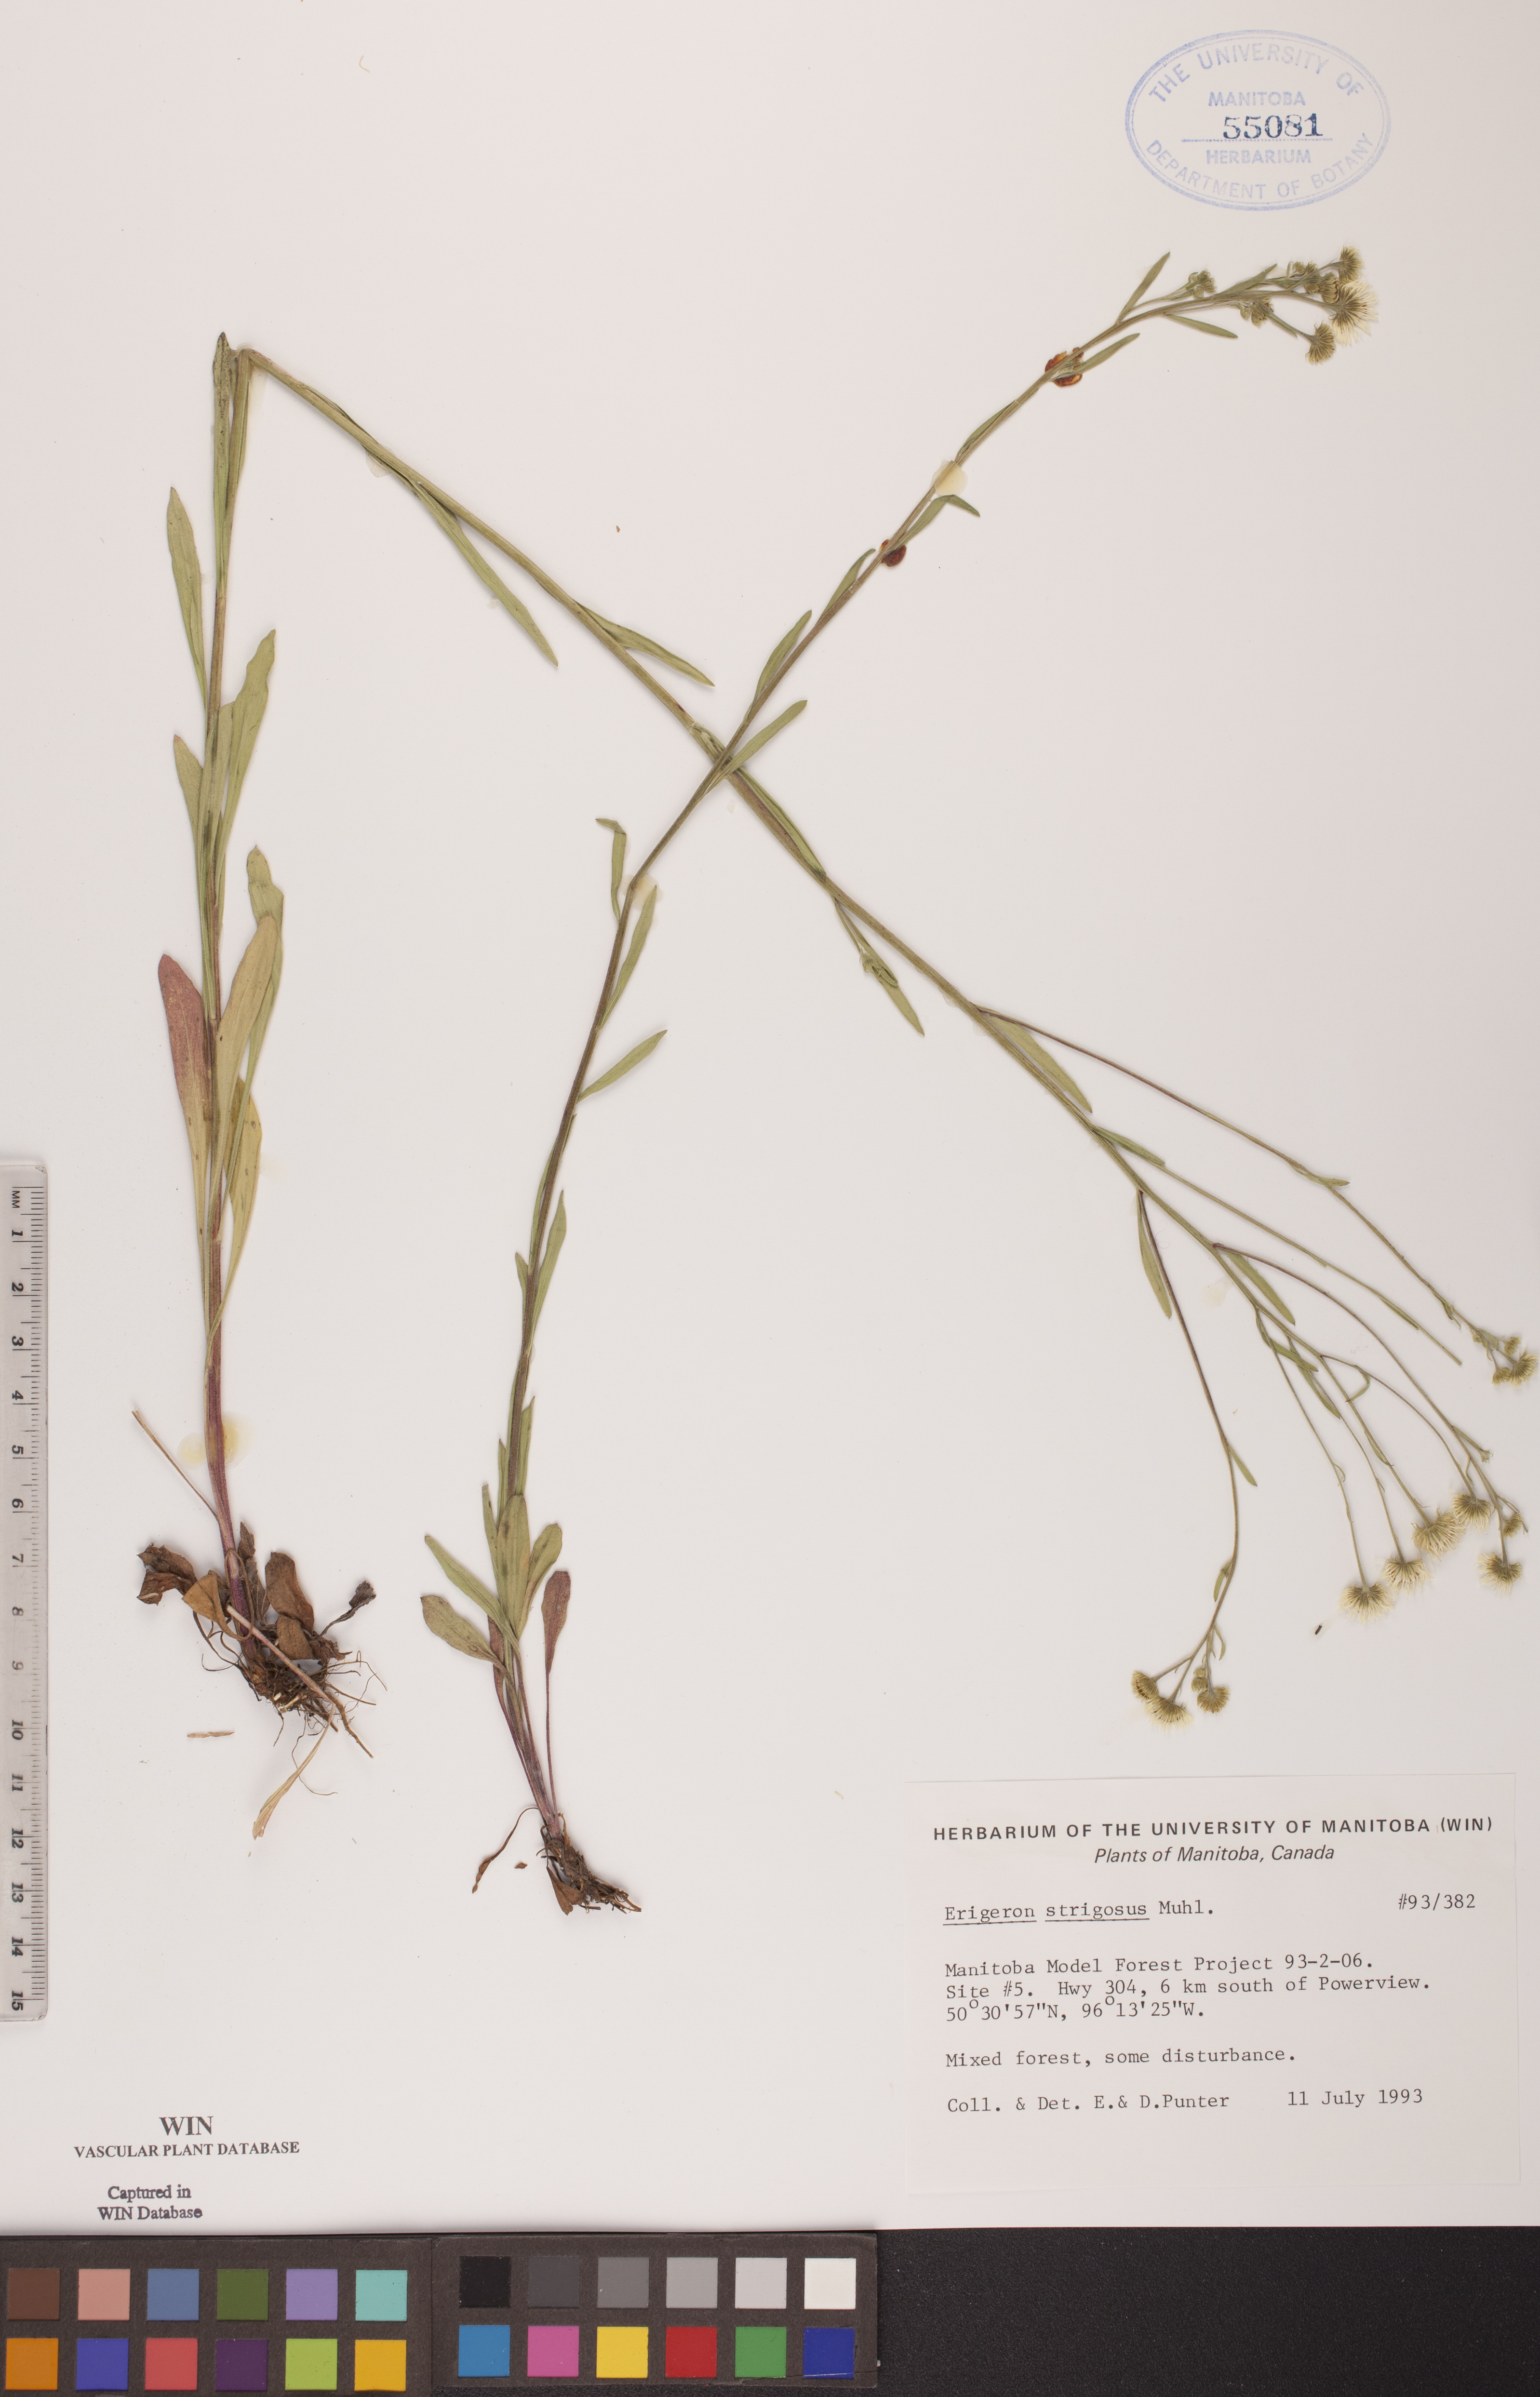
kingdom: Plantae
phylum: Tracheophyta
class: Magnoliopsida
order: Asterales
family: Asteraceae
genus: Erigeron
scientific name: Erigeron strigosus
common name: Common eastern fleabane
